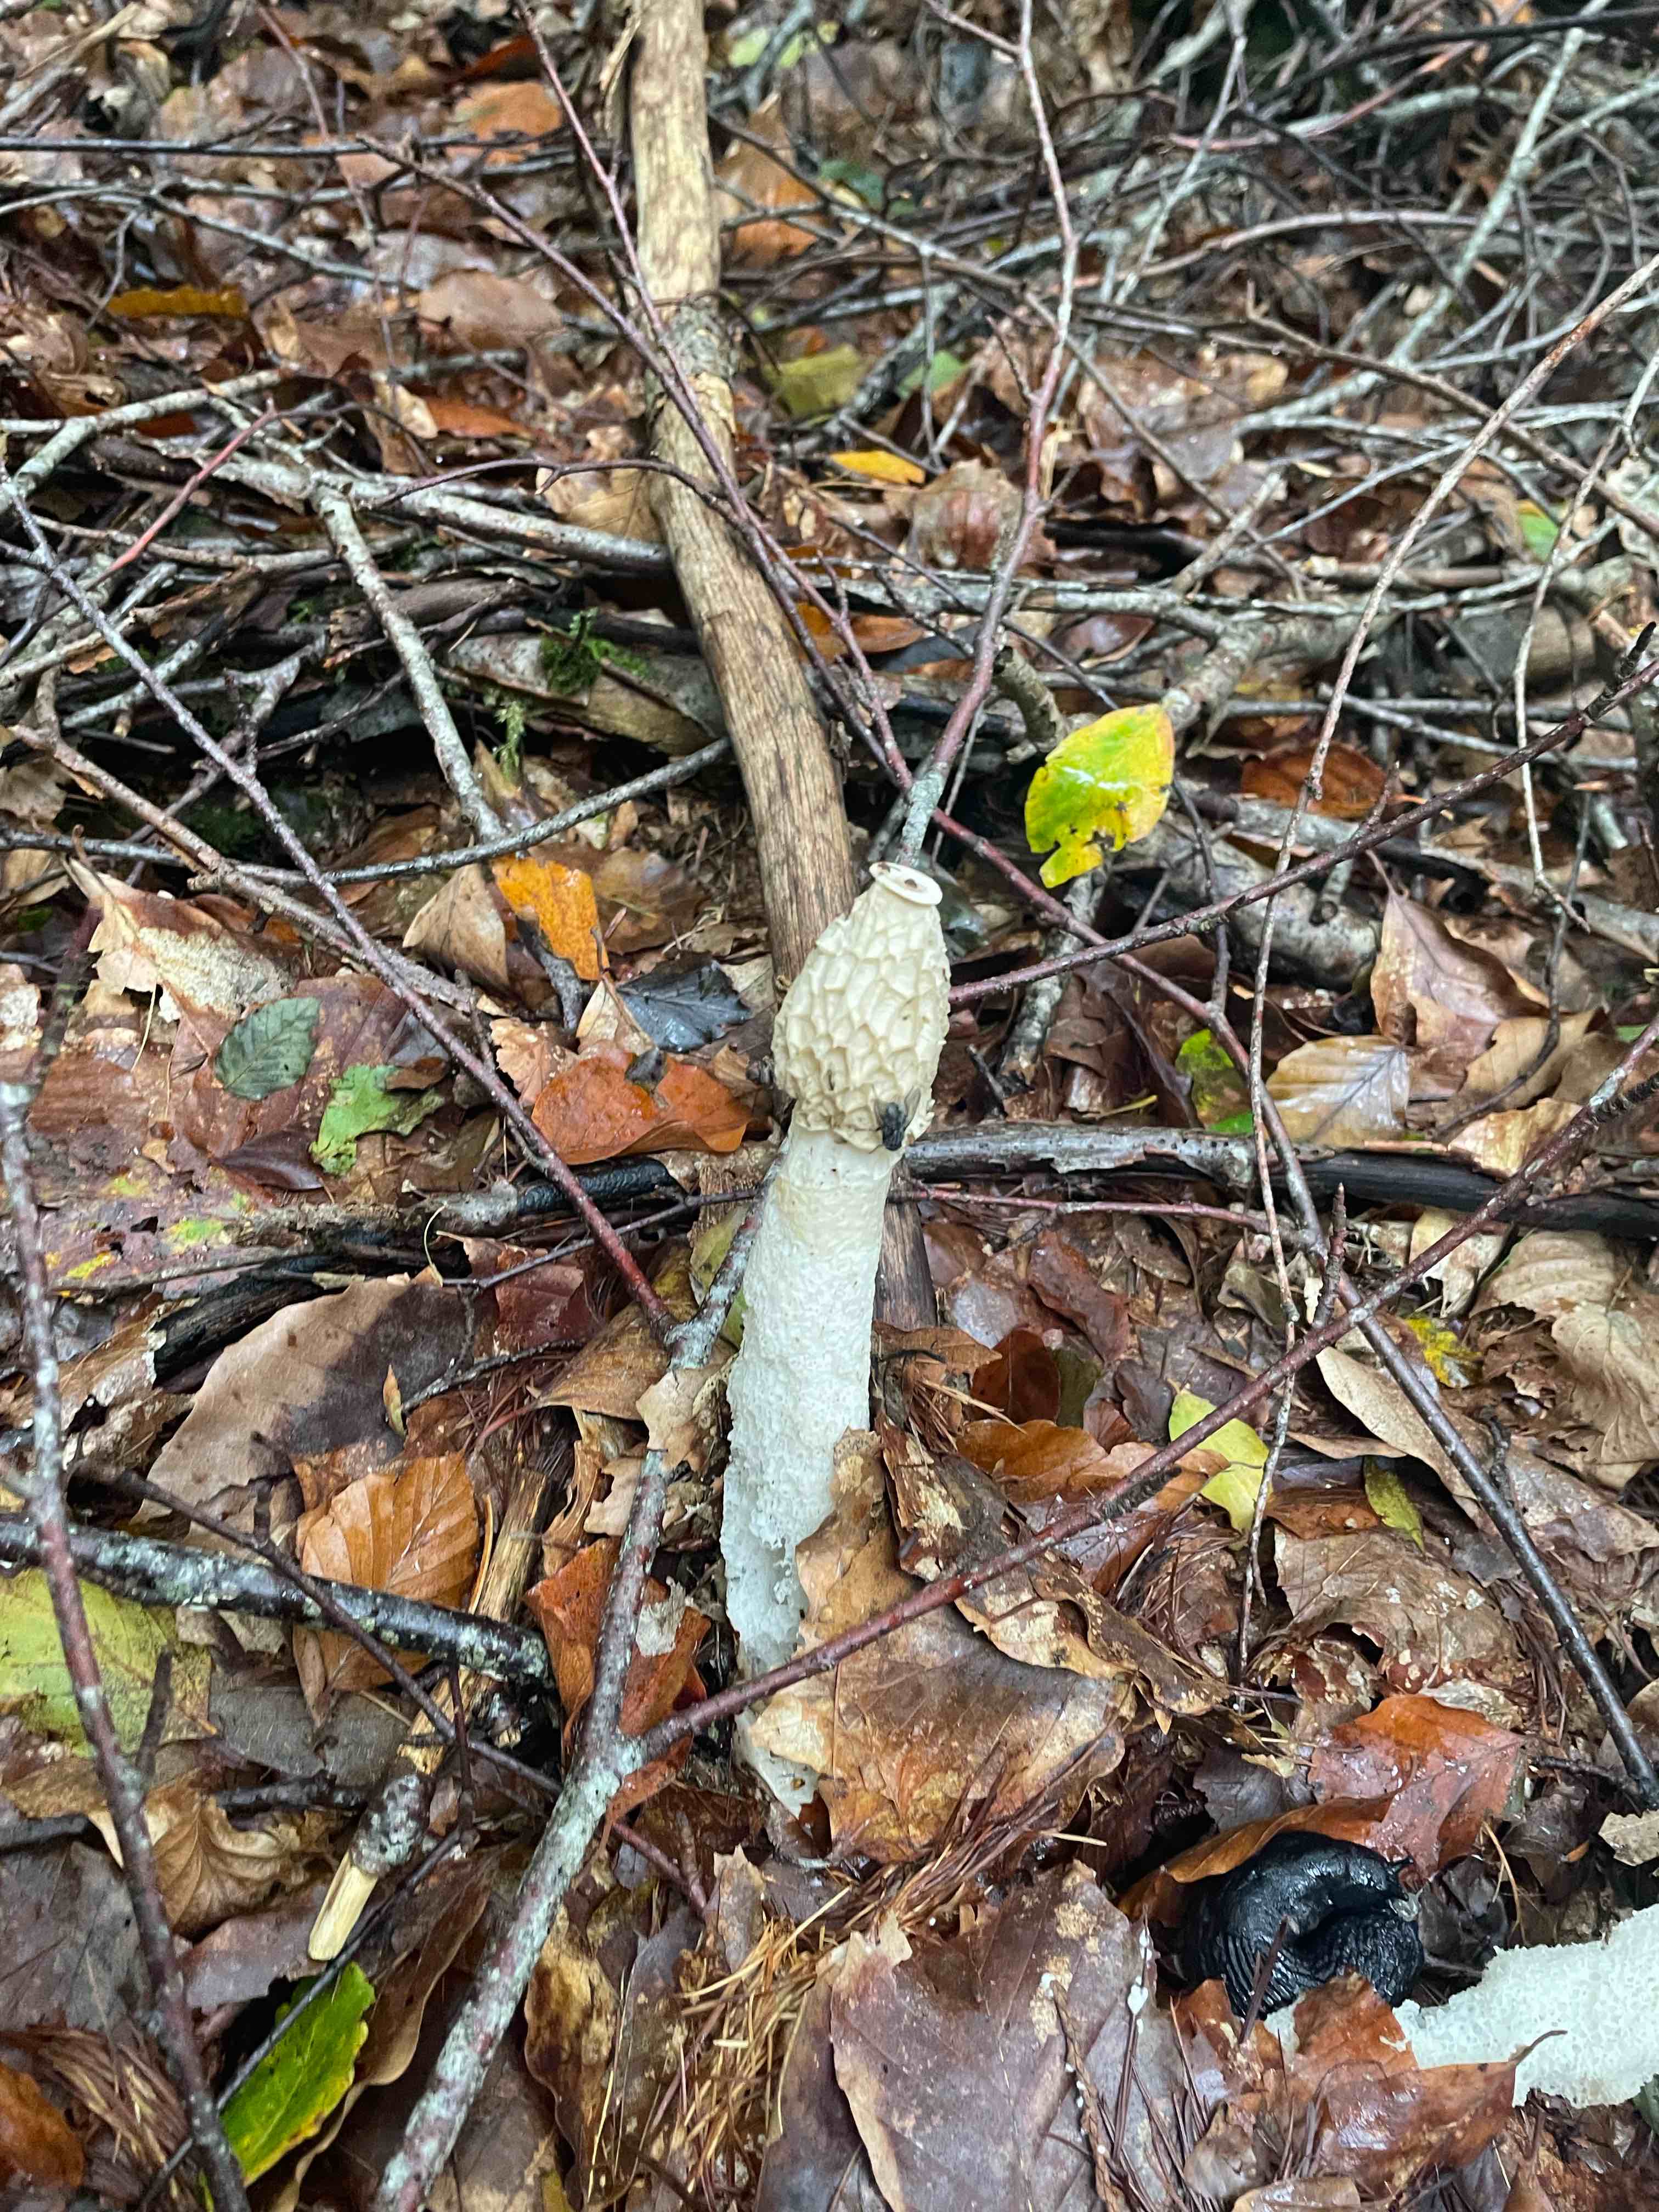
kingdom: Fungi
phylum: Basidiomycota
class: Agaricomycetes
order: Phallales
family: Phallaceae
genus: Phallus
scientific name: Phallus impudicus
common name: almindelig stinksvamp
